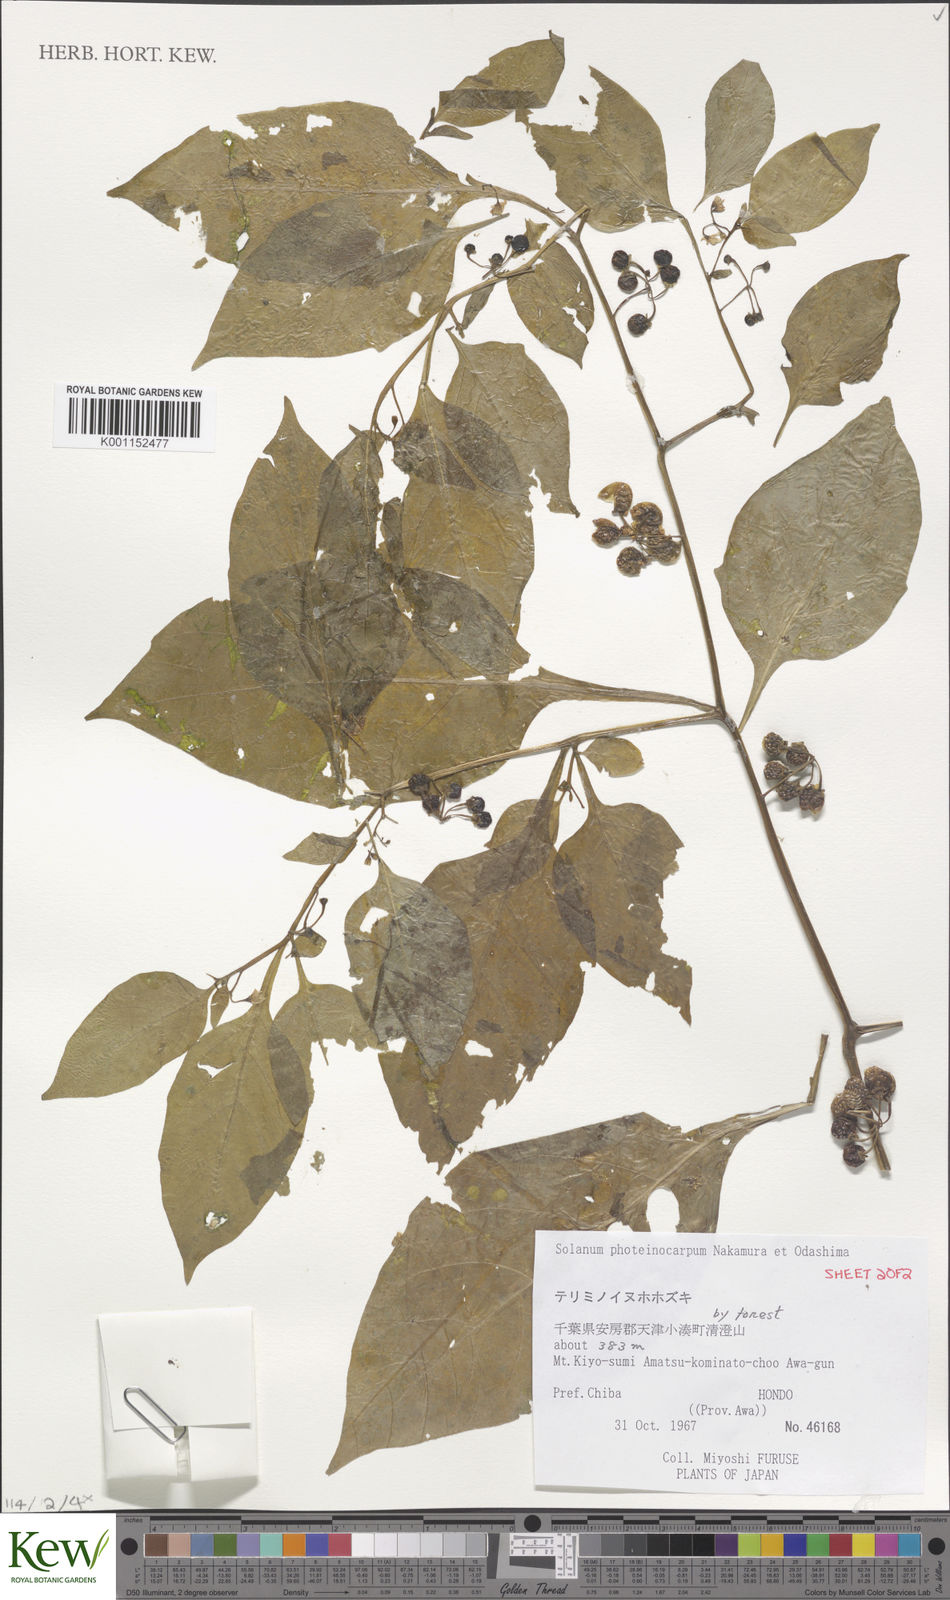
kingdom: Plantae
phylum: Tracheophyta
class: Magnoliopsida
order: Solanales
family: Solanaceae
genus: Solanum
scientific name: Solanum americanum
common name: American black nightshade
